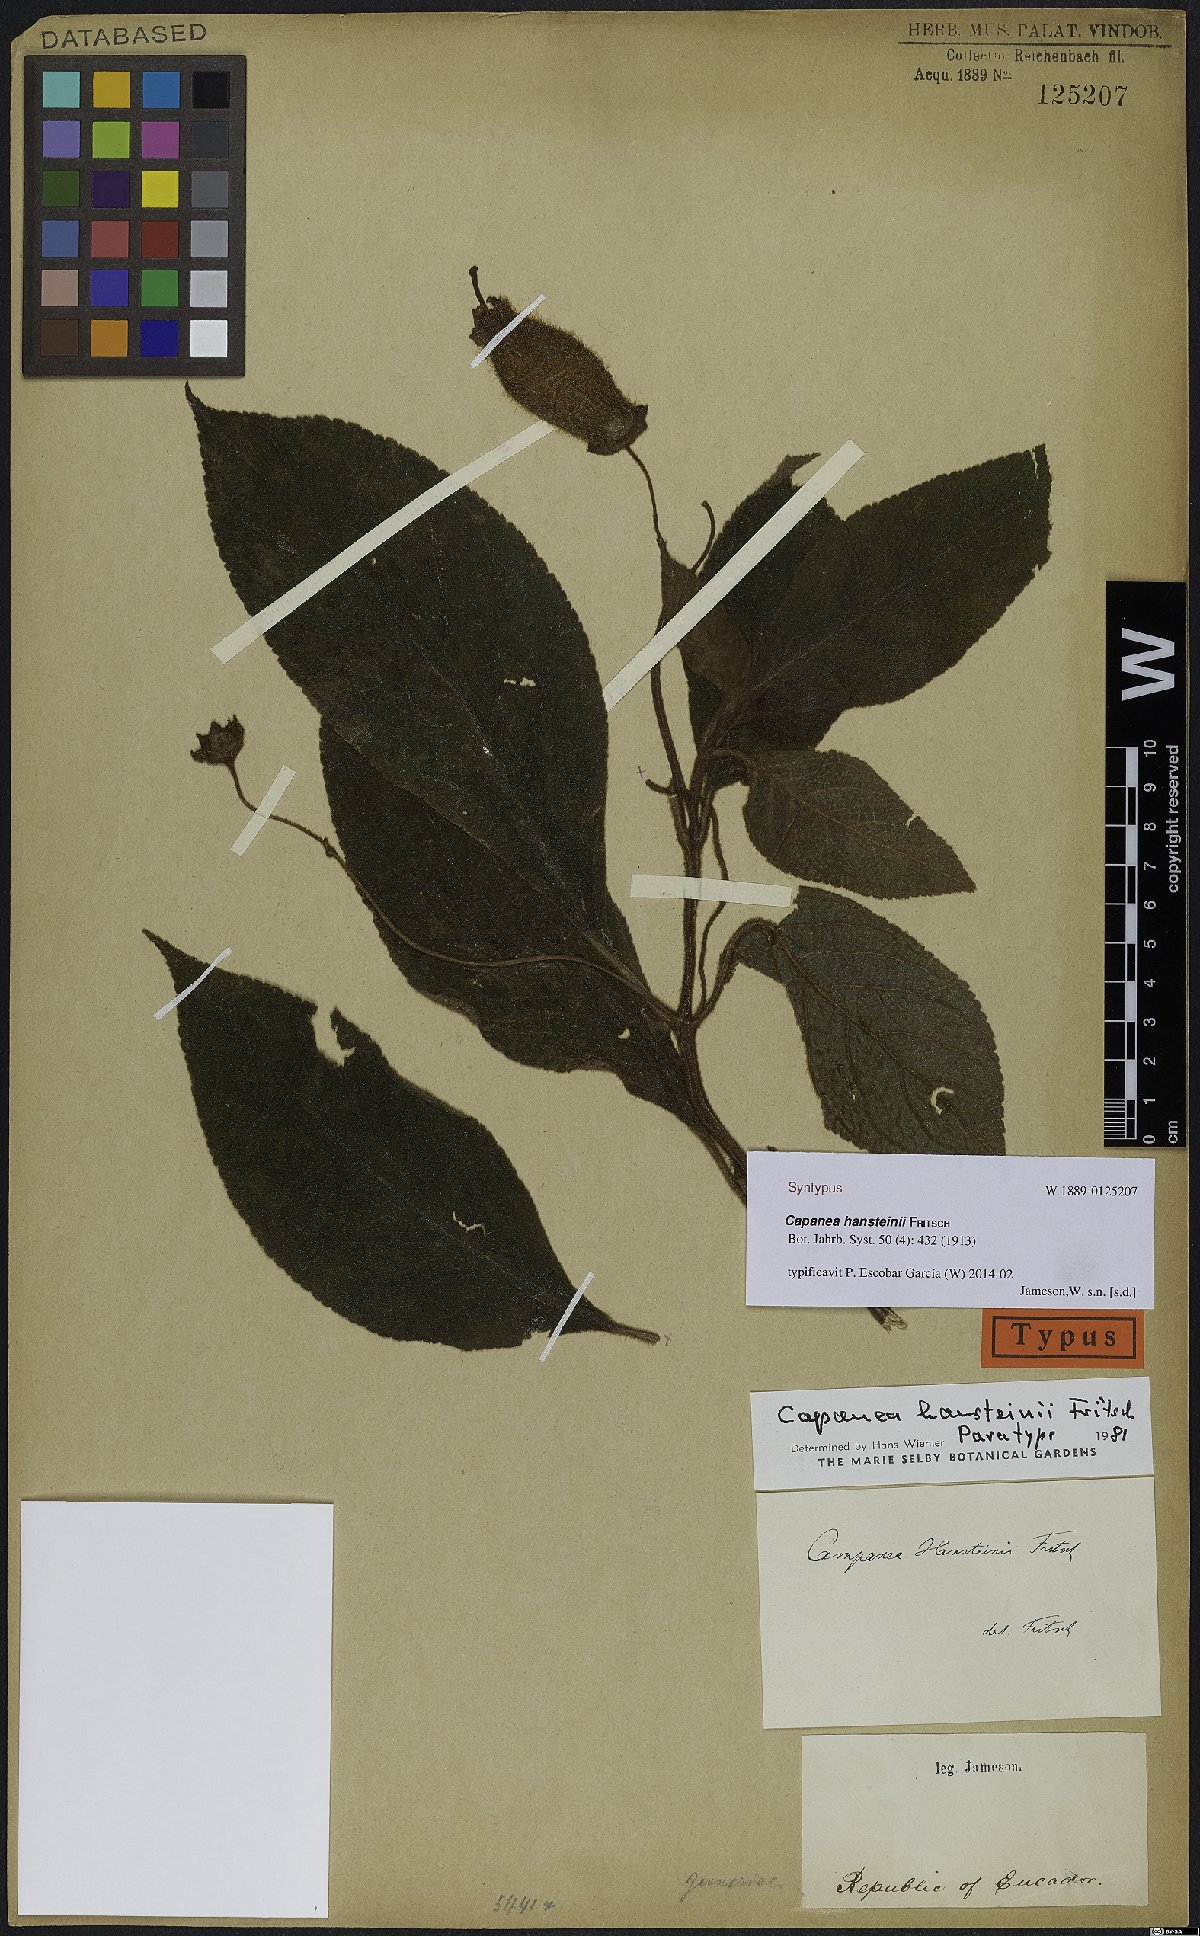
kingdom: Plantae
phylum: Tracheophyta
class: Magnoliopsida
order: Lamiales
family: Gesneriaceae
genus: Kohleria
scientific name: Kohleria affinis
